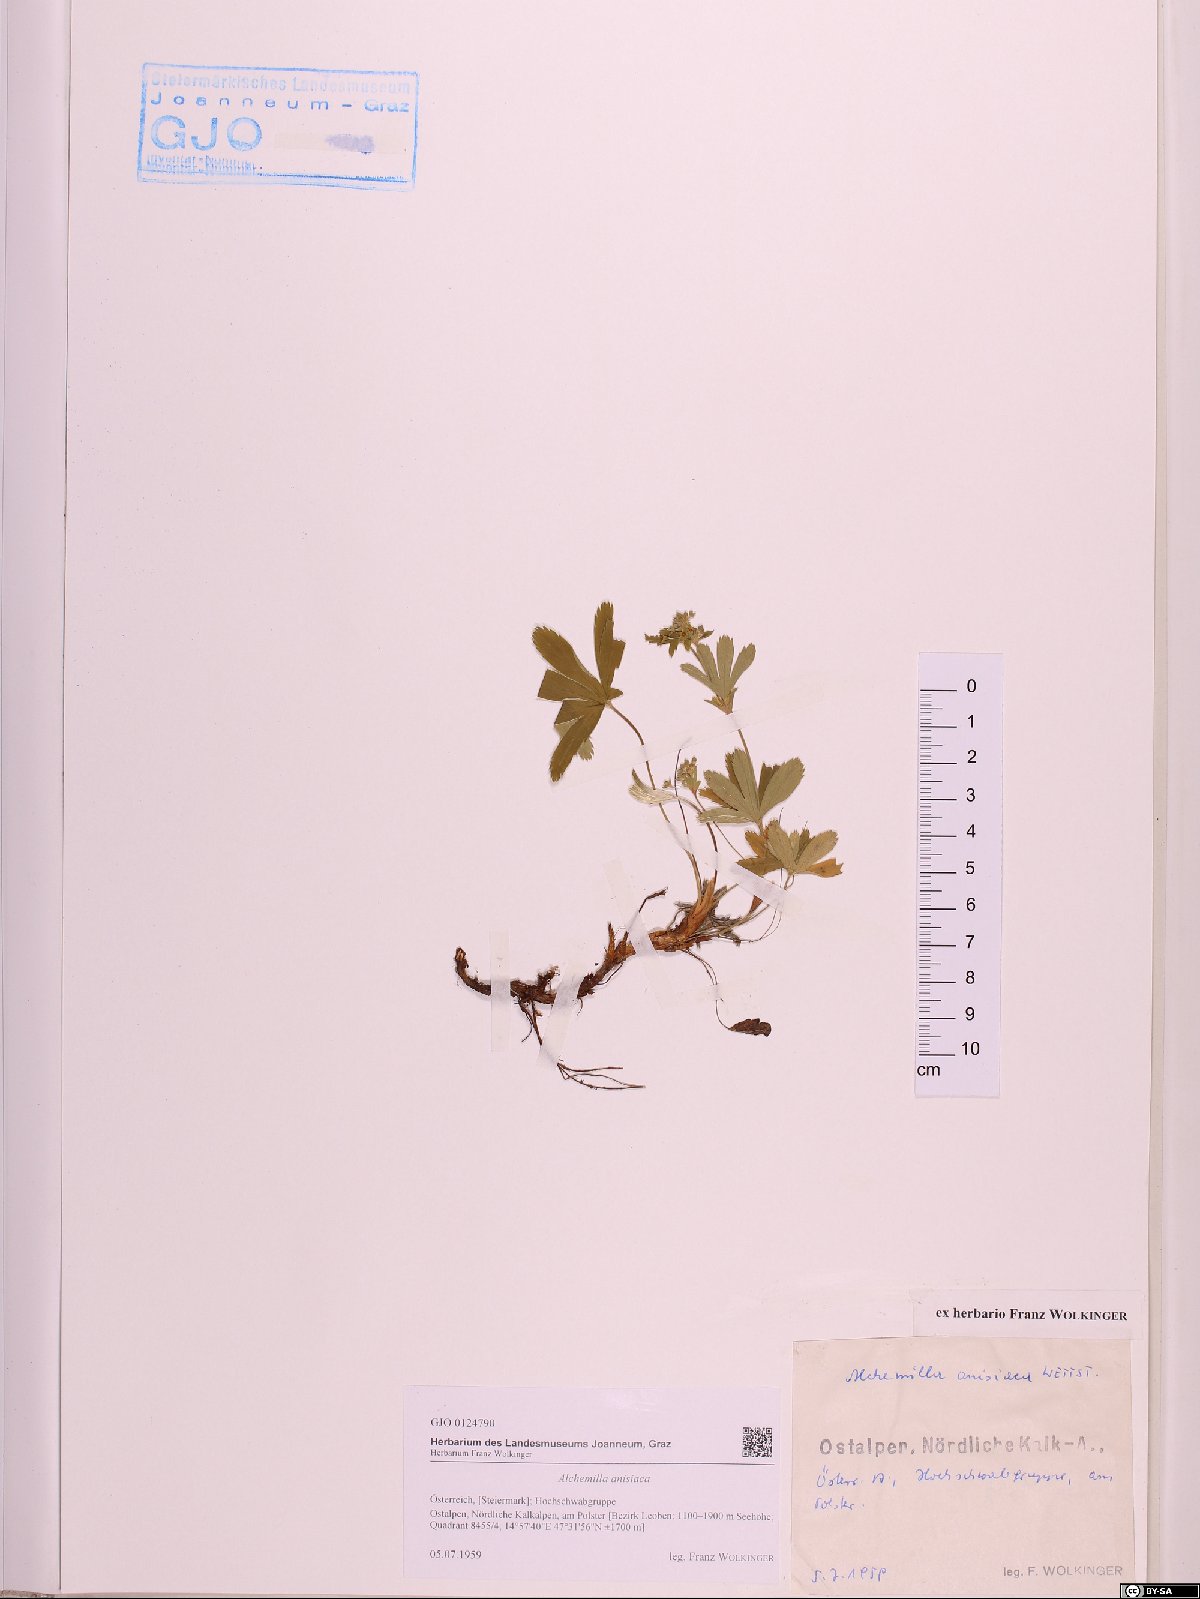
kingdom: Plantae
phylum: Tracheophyta
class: Magnoliopsida
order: Rosales
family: Rosaceae
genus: Alchemilla
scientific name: Alchemilla anisiaca
